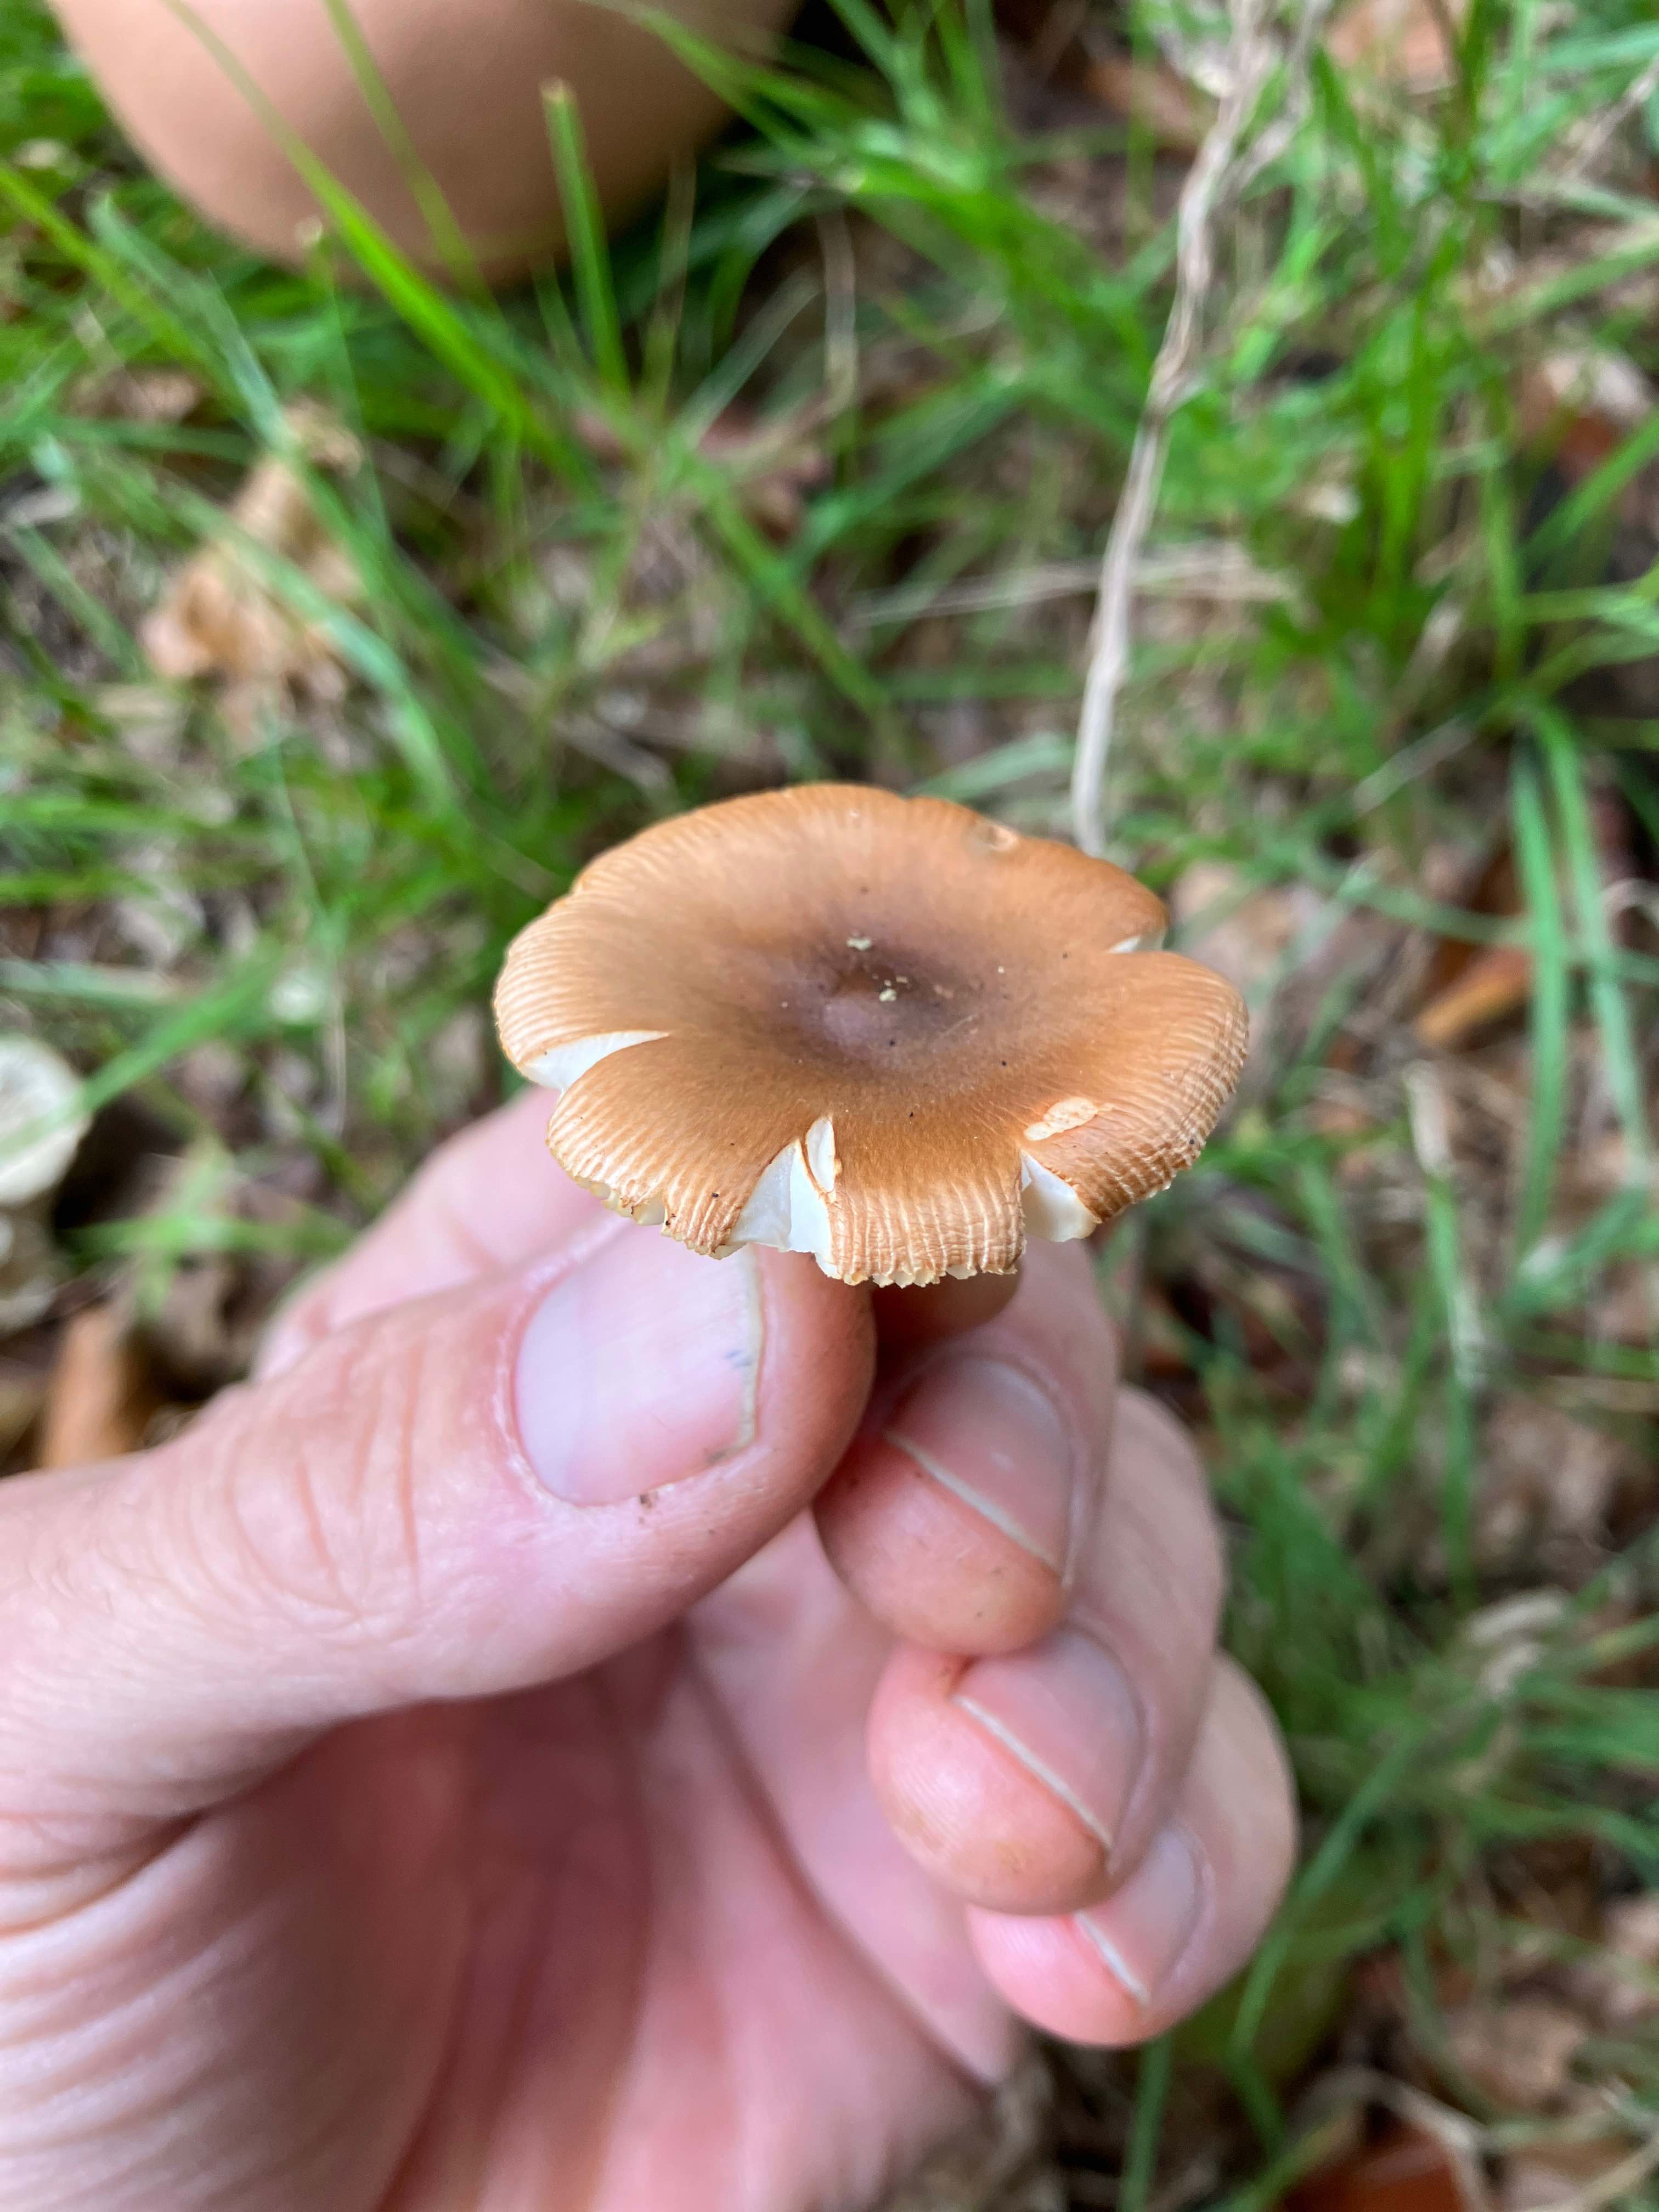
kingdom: Fungi
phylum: Basidiomycota
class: Agaricomycetes
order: Agaricales
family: Amanitaceae
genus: Amanita
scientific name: Amanita fulva
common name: brun kam-fluesvamp
